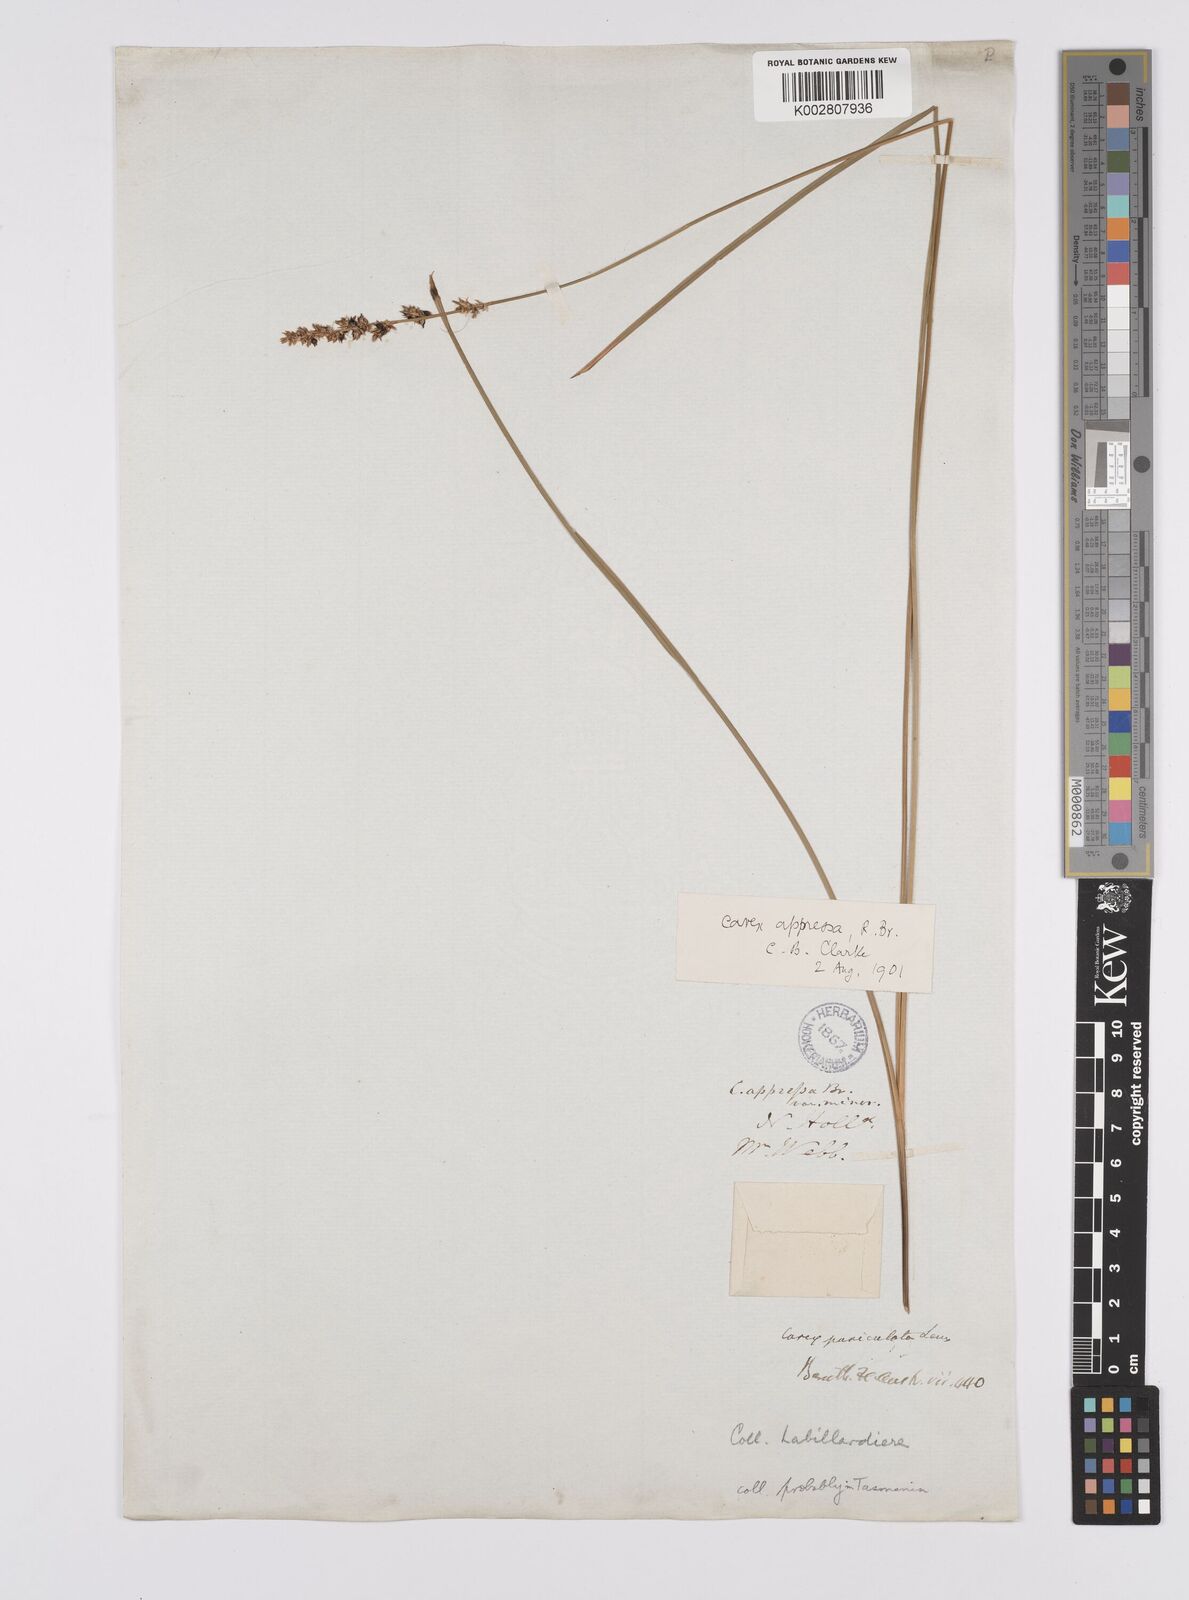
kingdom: Plantae
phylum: Tracheophyta
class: Liliopsida
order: Poales
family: Cyperaceae
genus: Carex
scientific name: Carex appressa
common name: Tussock sedge
